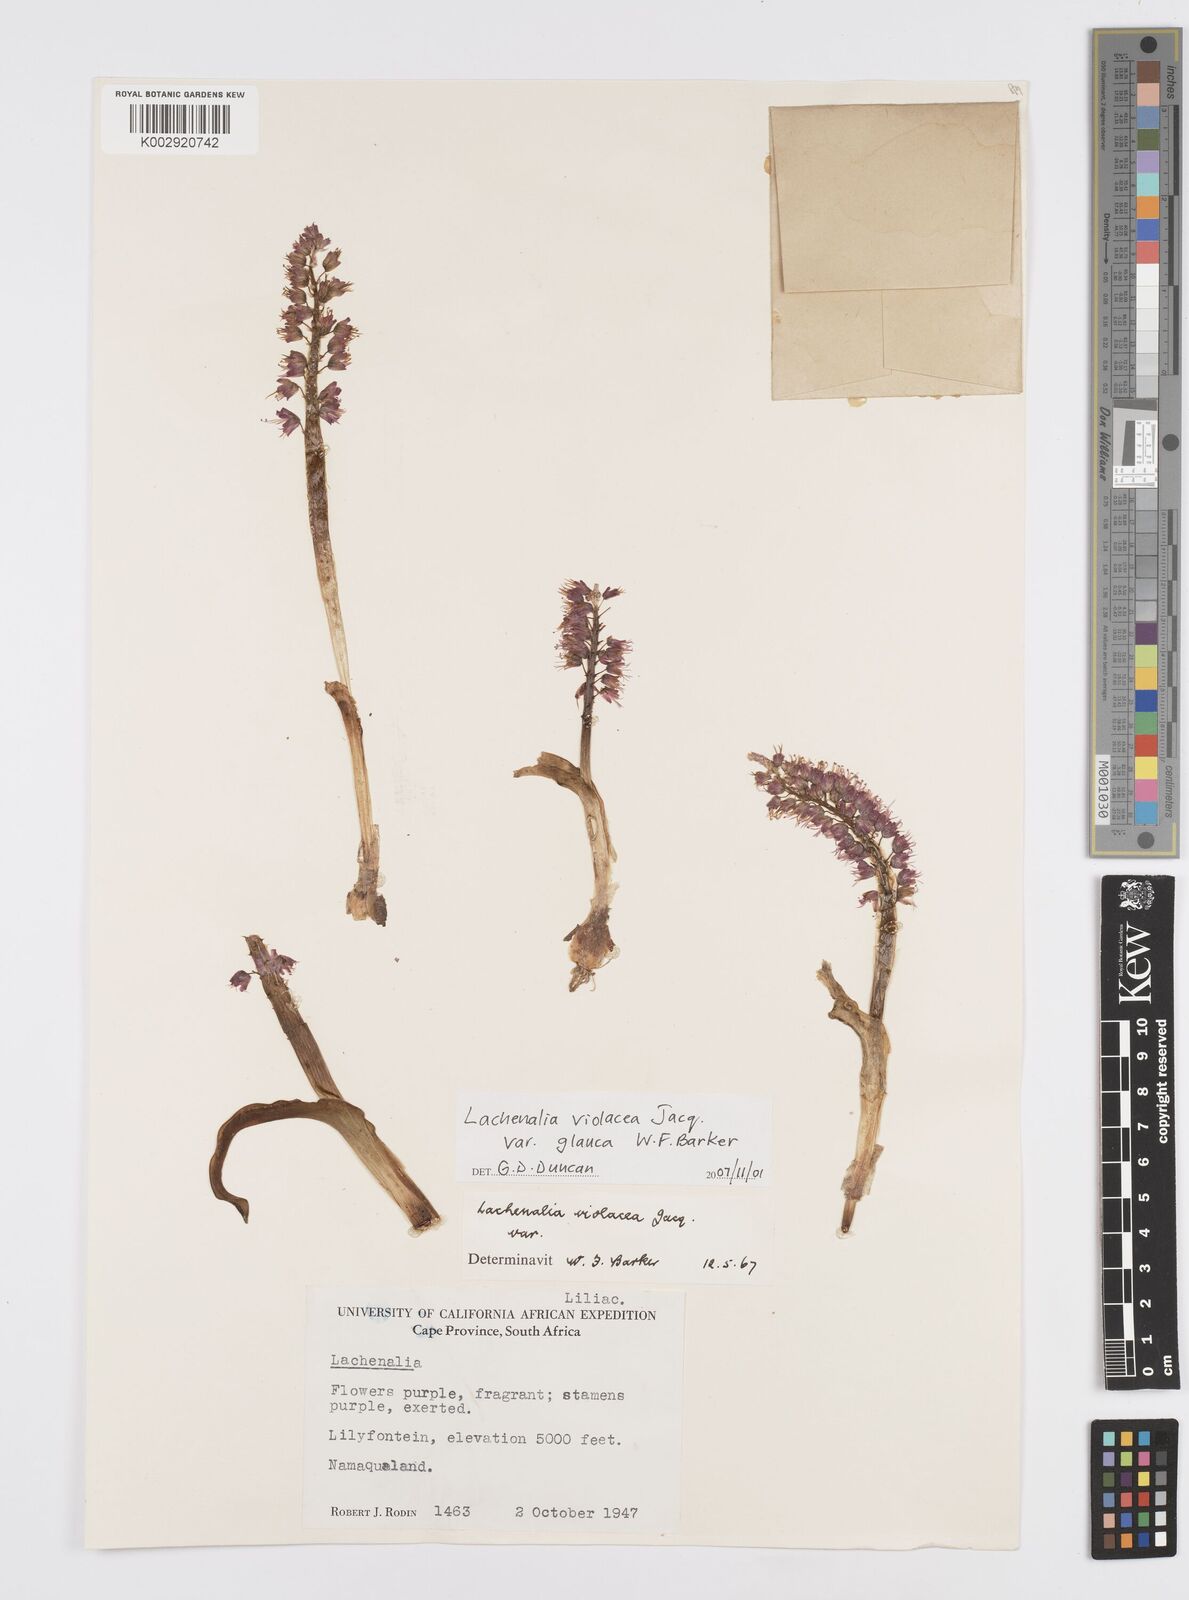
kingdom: Plantae
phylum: Tracheophyta
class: Liliopsida
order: Asparagales
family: Asparagaceae
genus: Lachenalia
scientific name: Lachenalia violacea
